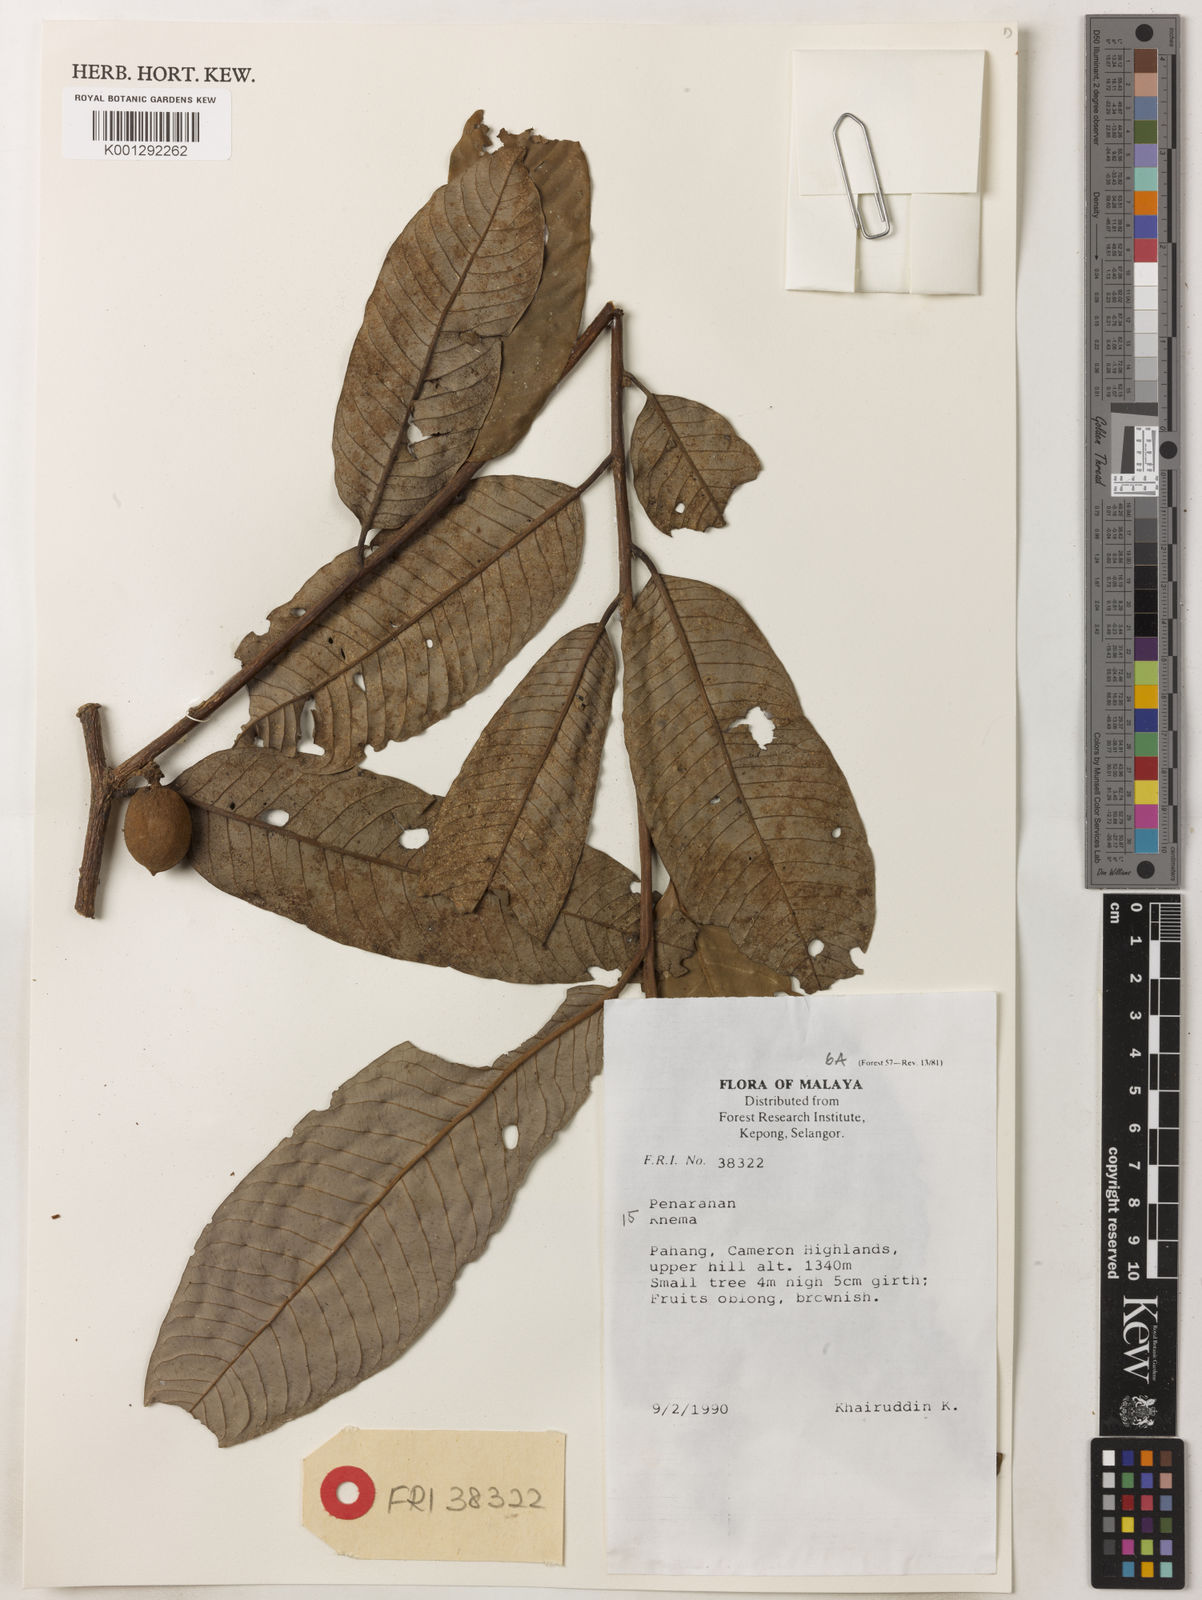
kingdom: Plantae
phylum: Tracheophyta
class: Magnoliopsida
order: Magnoliales
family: Myristicaceae
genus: Knema
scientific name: Knema
